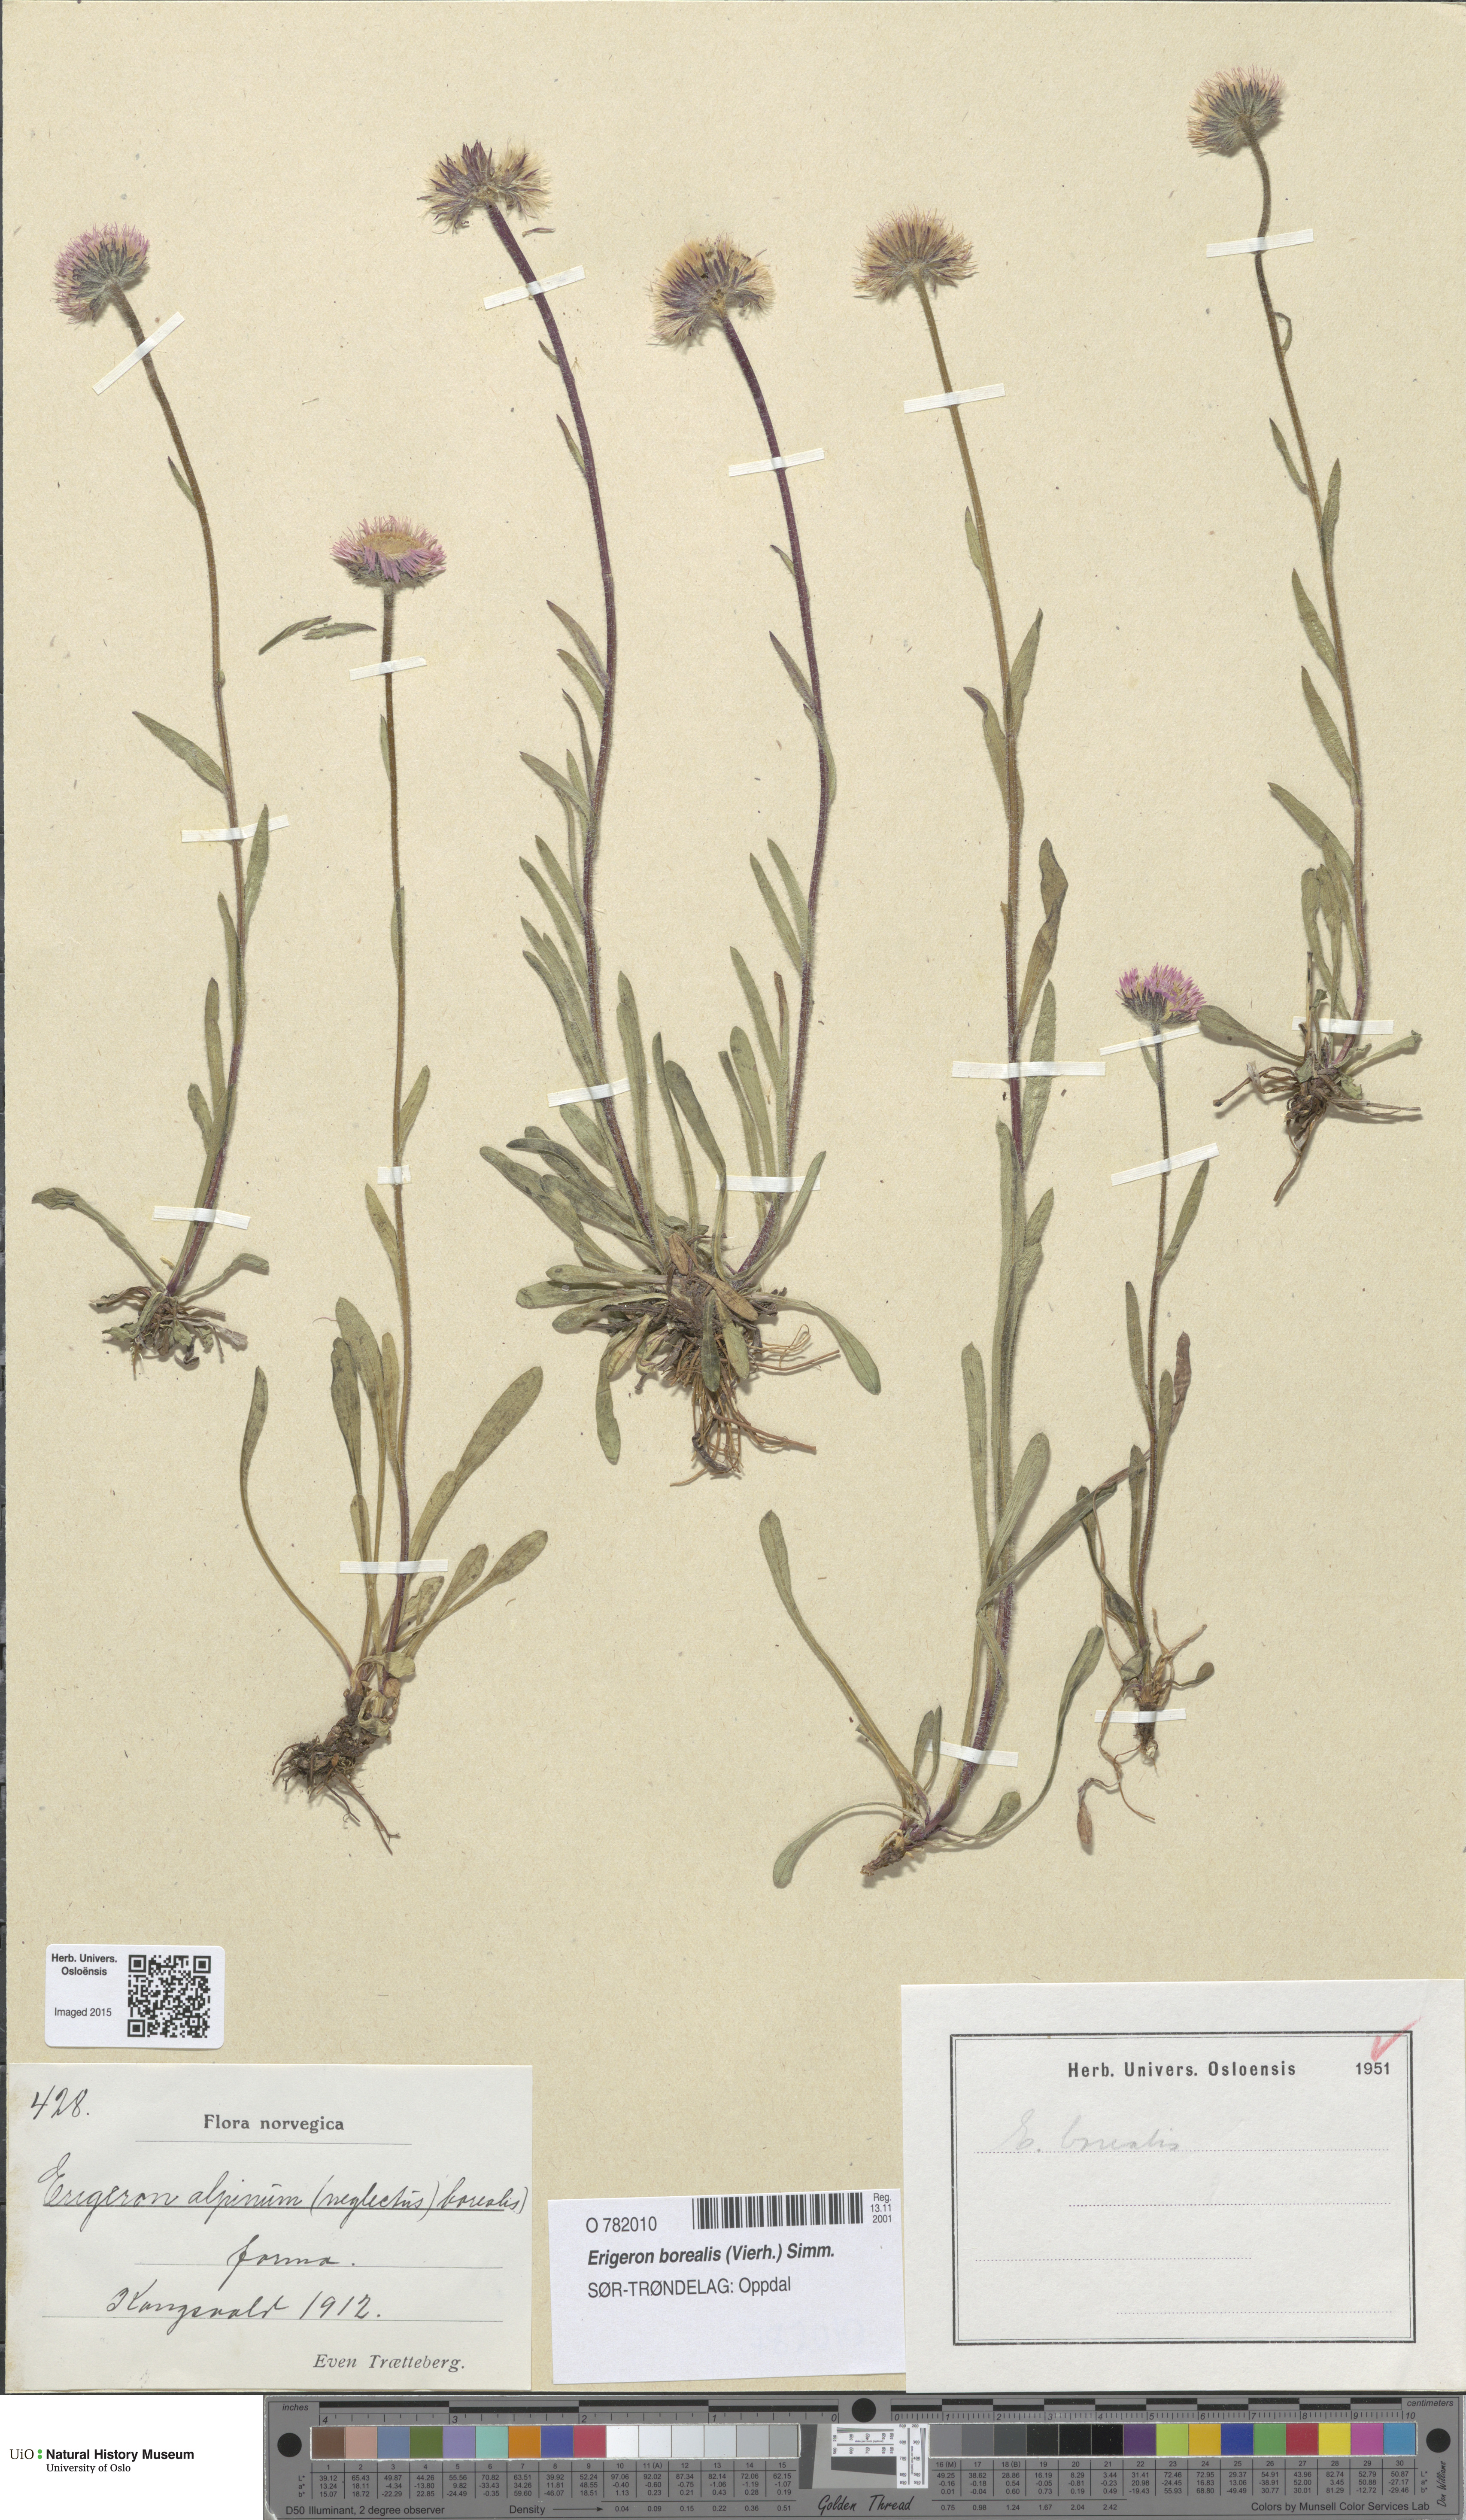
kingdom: Plantae
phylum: Tracheophyta
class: Magnoliopsida
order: Asterales
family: Asteraceae
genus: Erigeron
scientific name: Erigeron borealis
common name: Alpine fleabane
